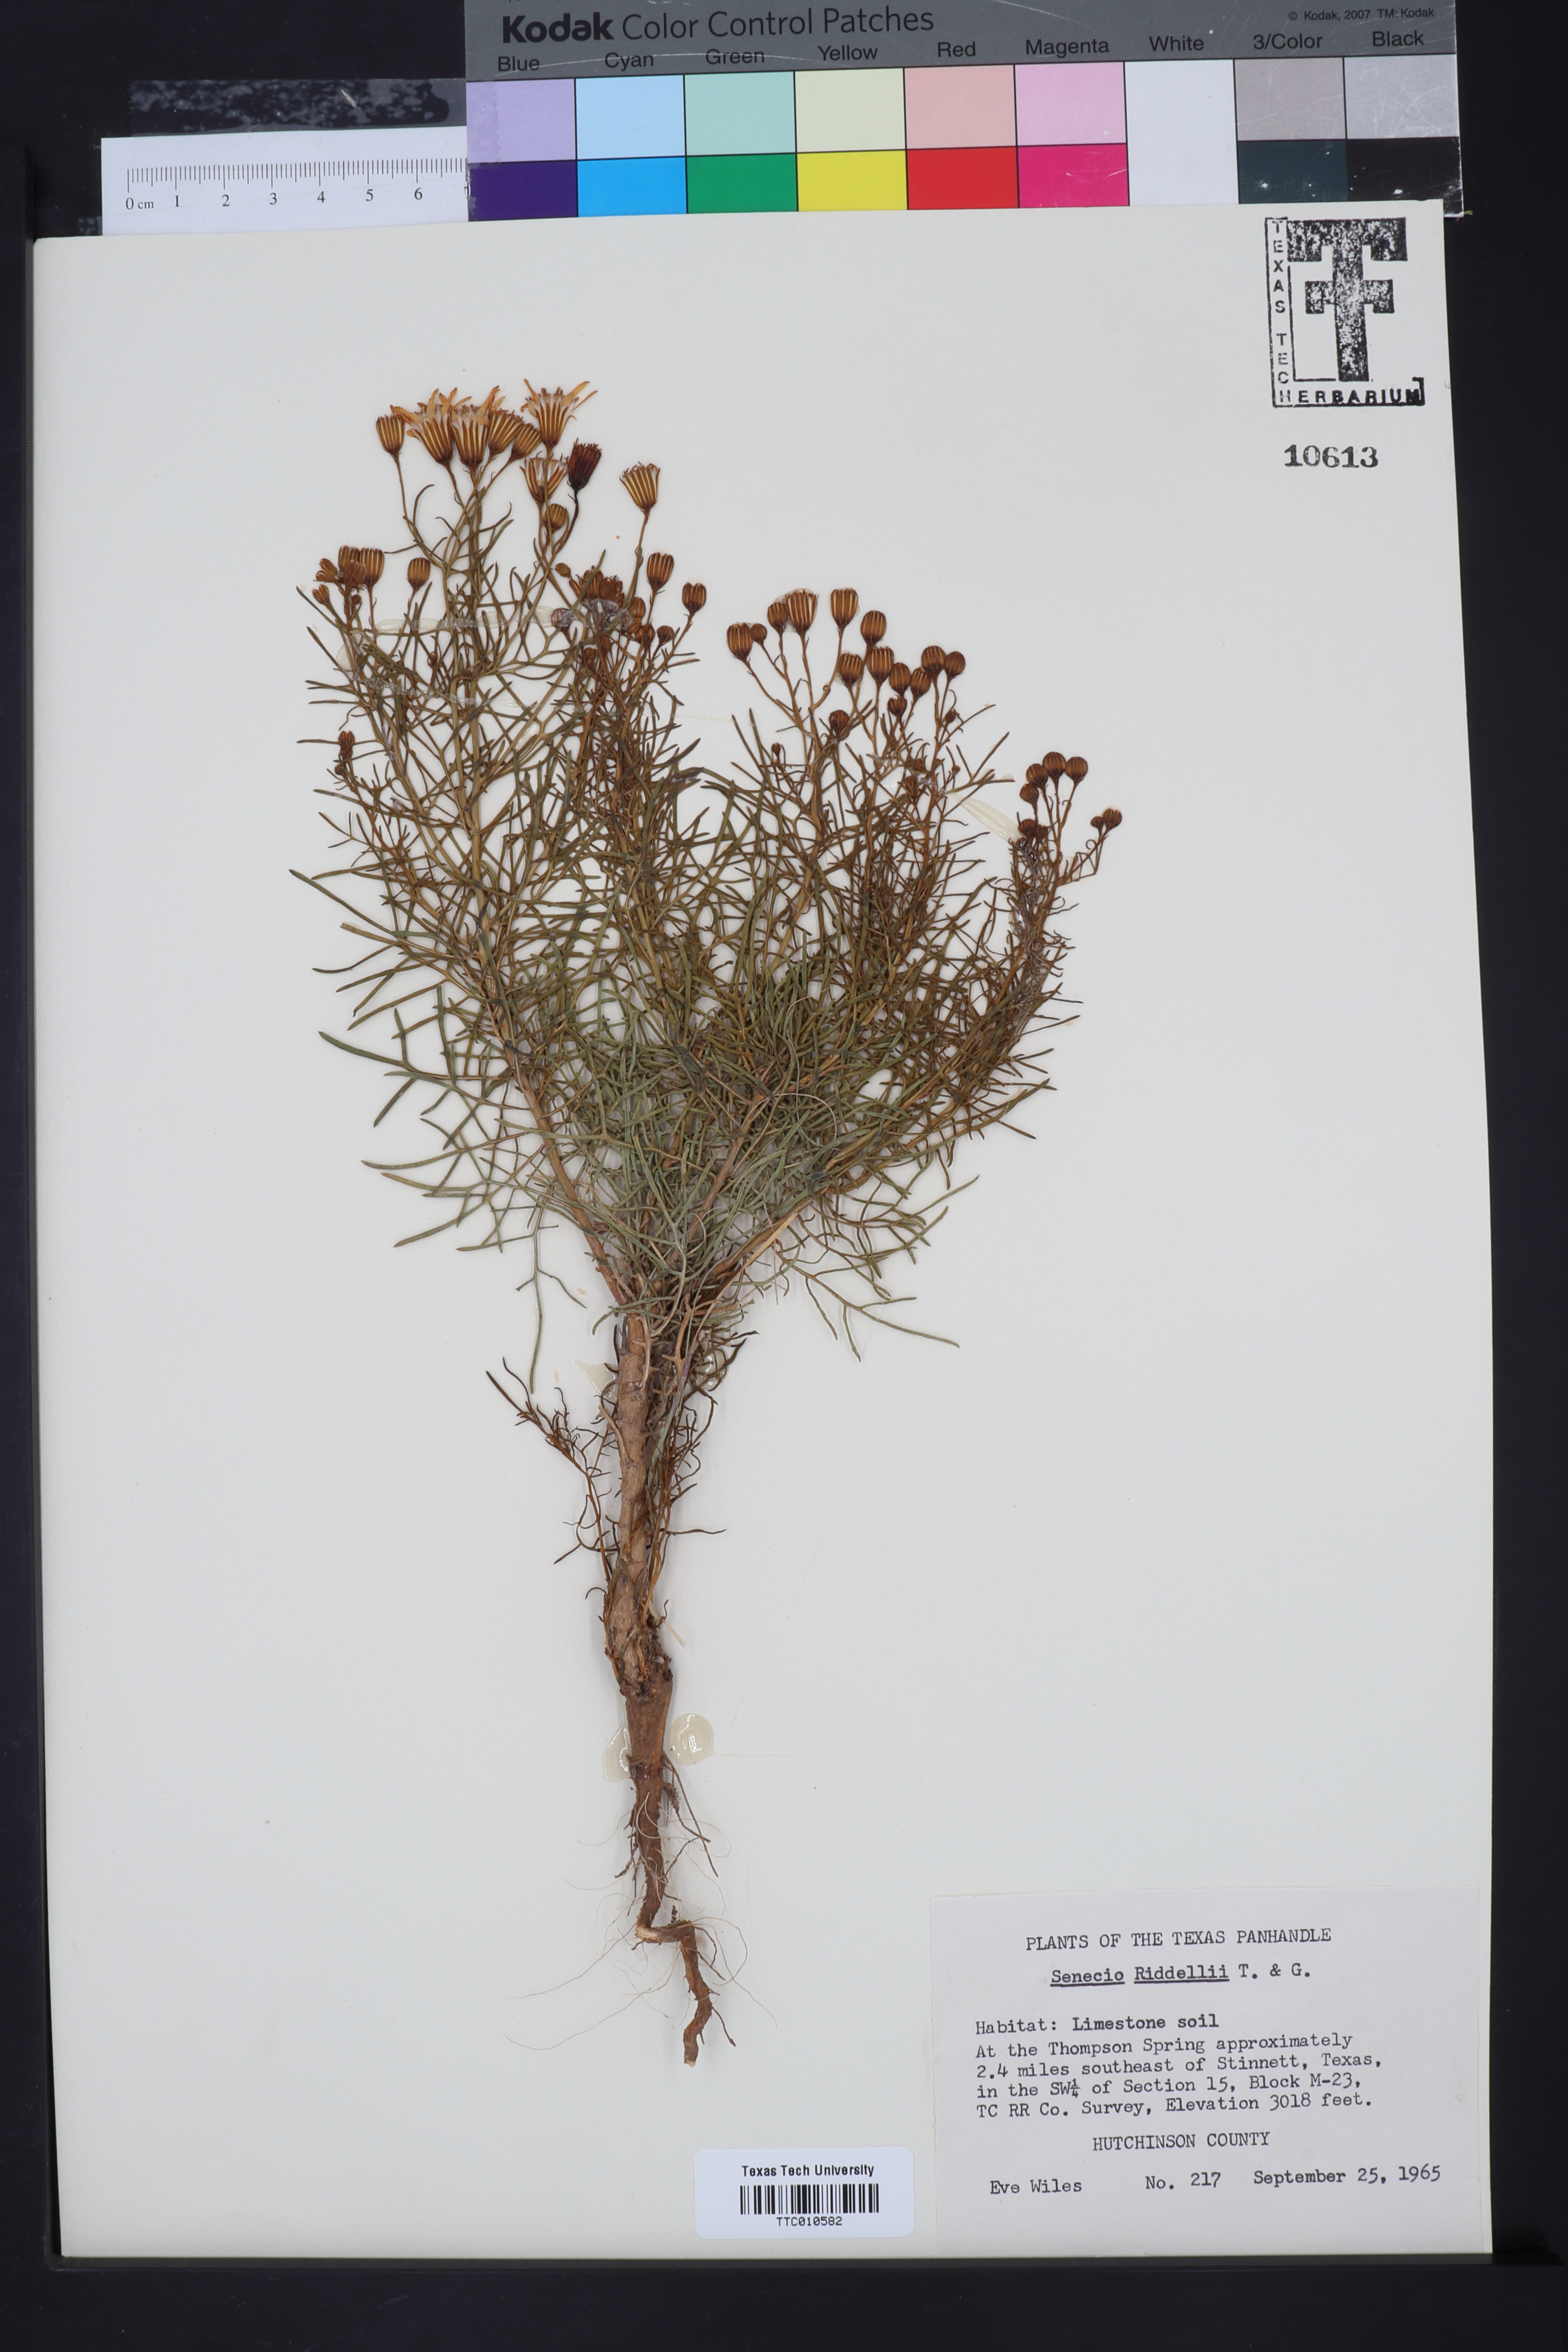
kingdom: Plantae
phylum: Tracheophyta
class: Magnoliopsida
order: Asterales
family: Asteraceae
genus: Senecio
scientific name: Senecio riddellii
